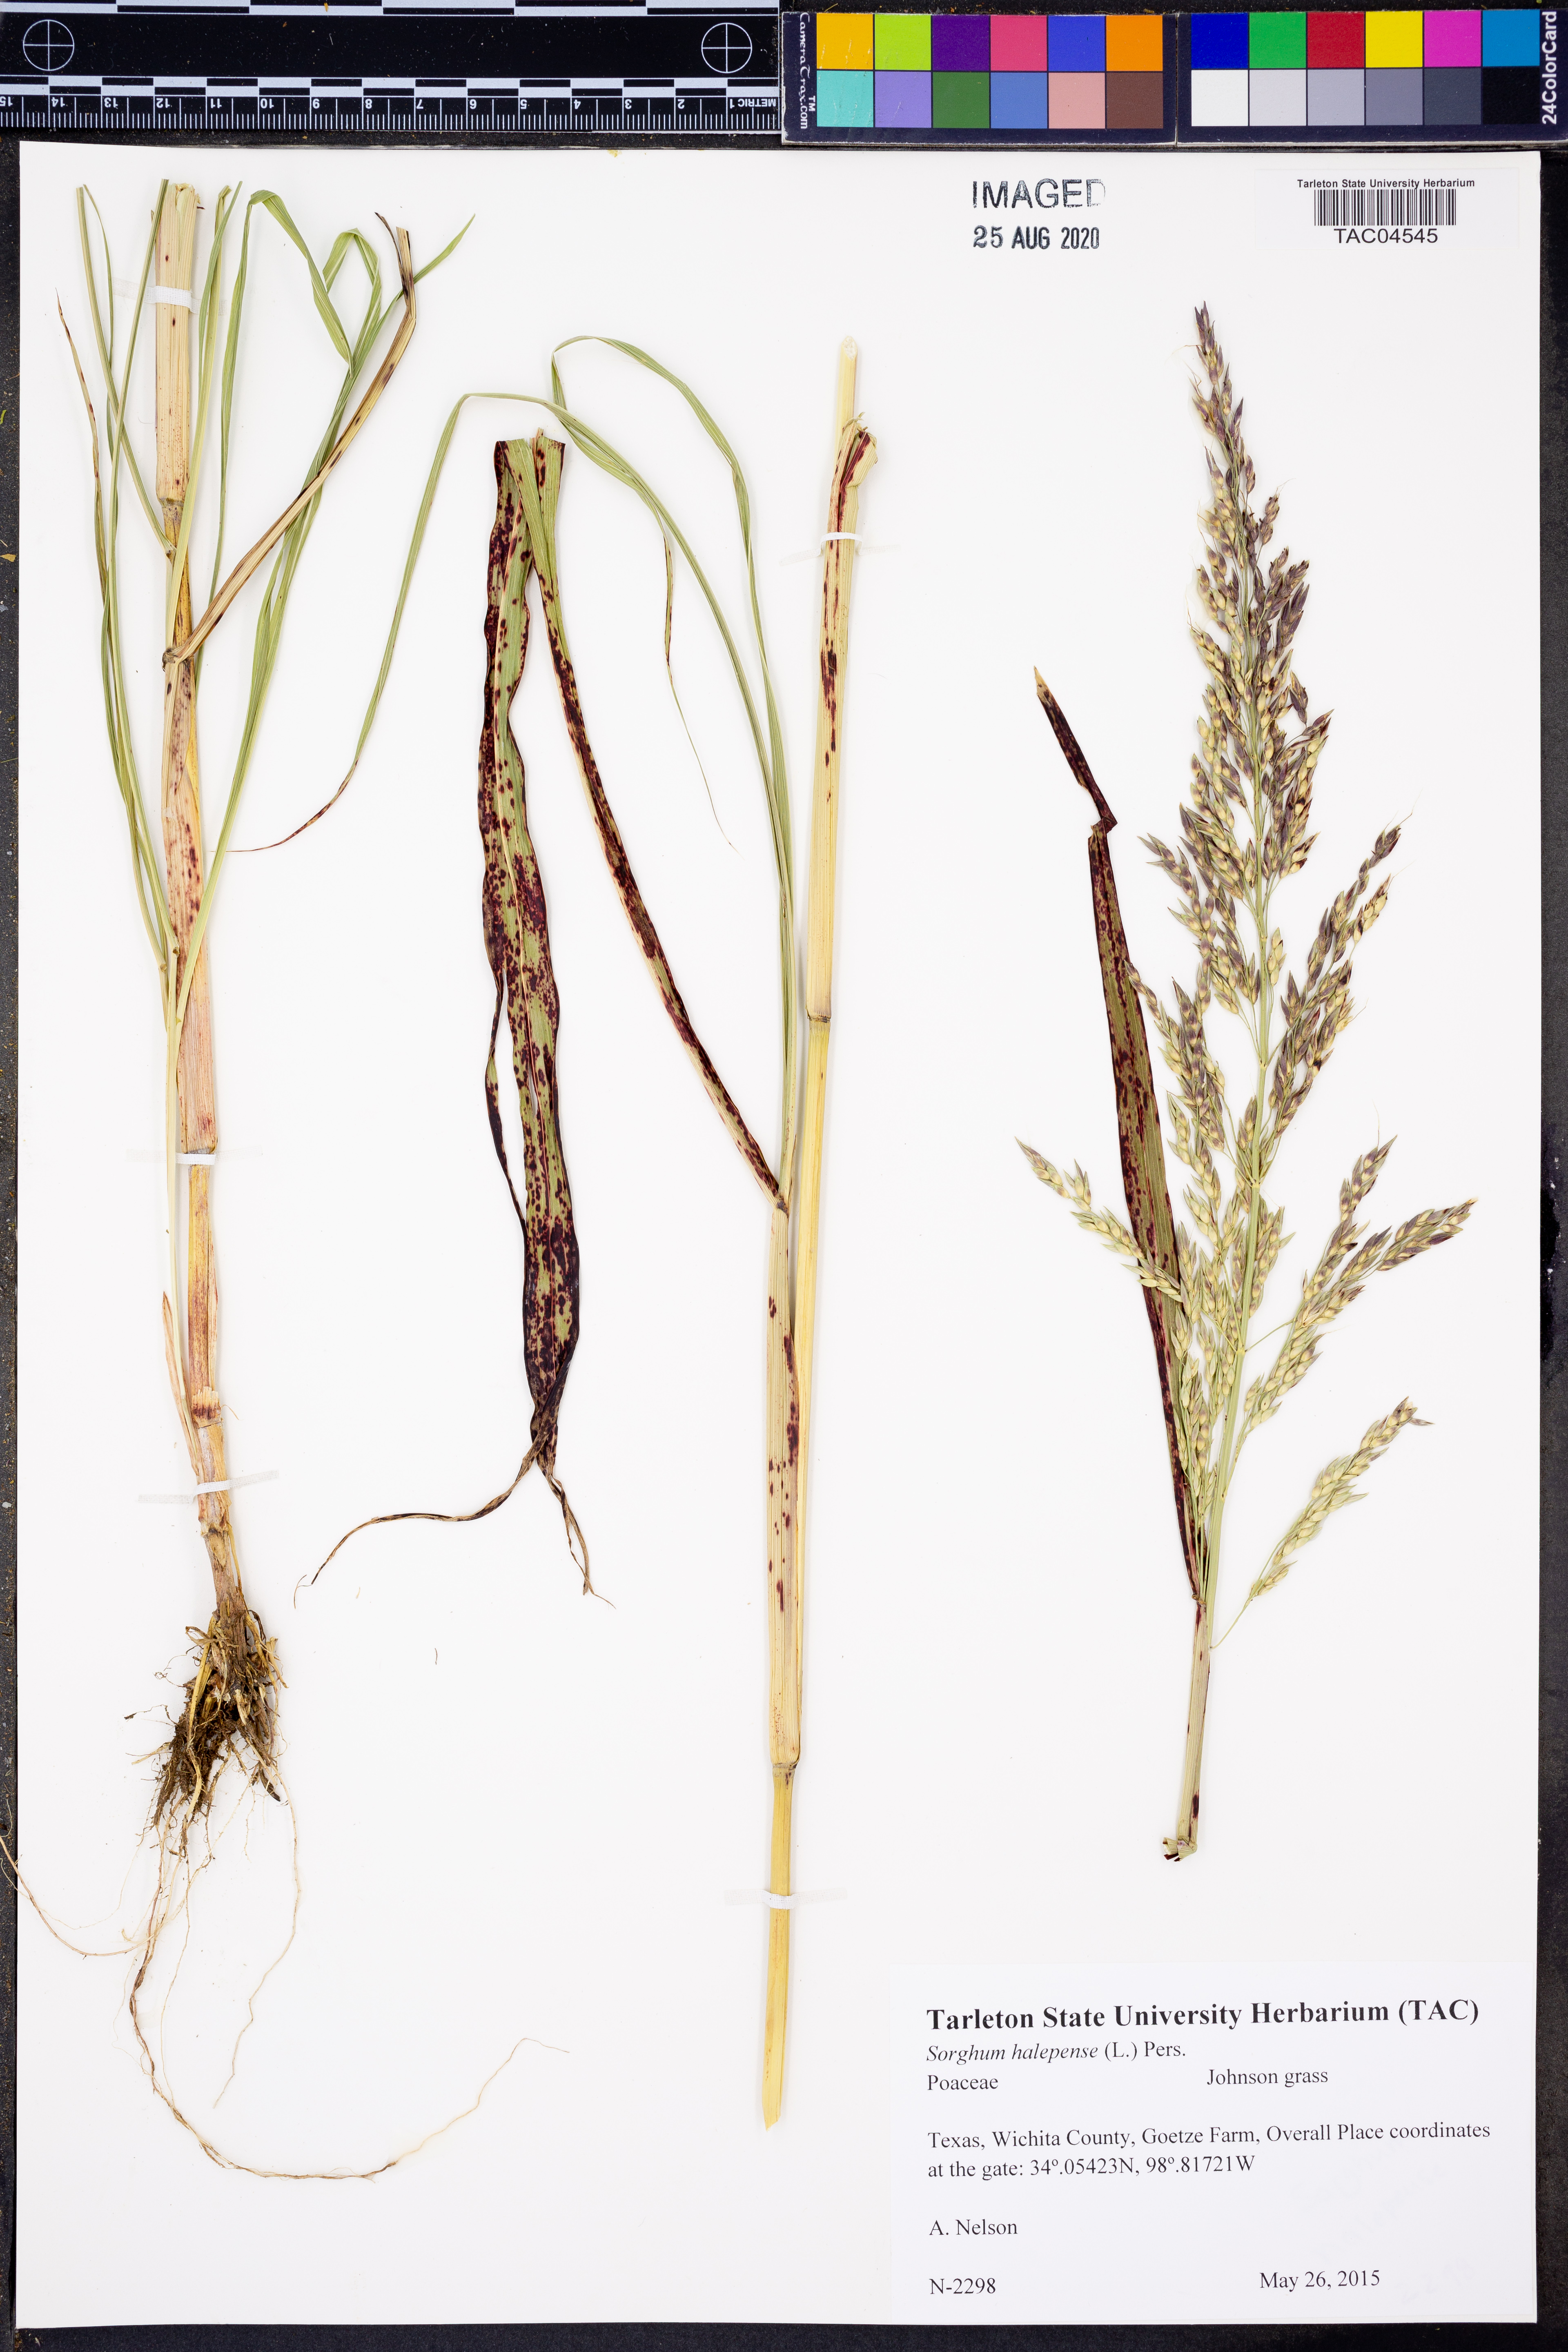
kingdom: Plantae
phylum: Tracheophyta
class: Liliopsida
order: Poales
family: Poaceae
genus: Sorghum
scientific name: Sorghum halepense
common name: Johnson-grass
